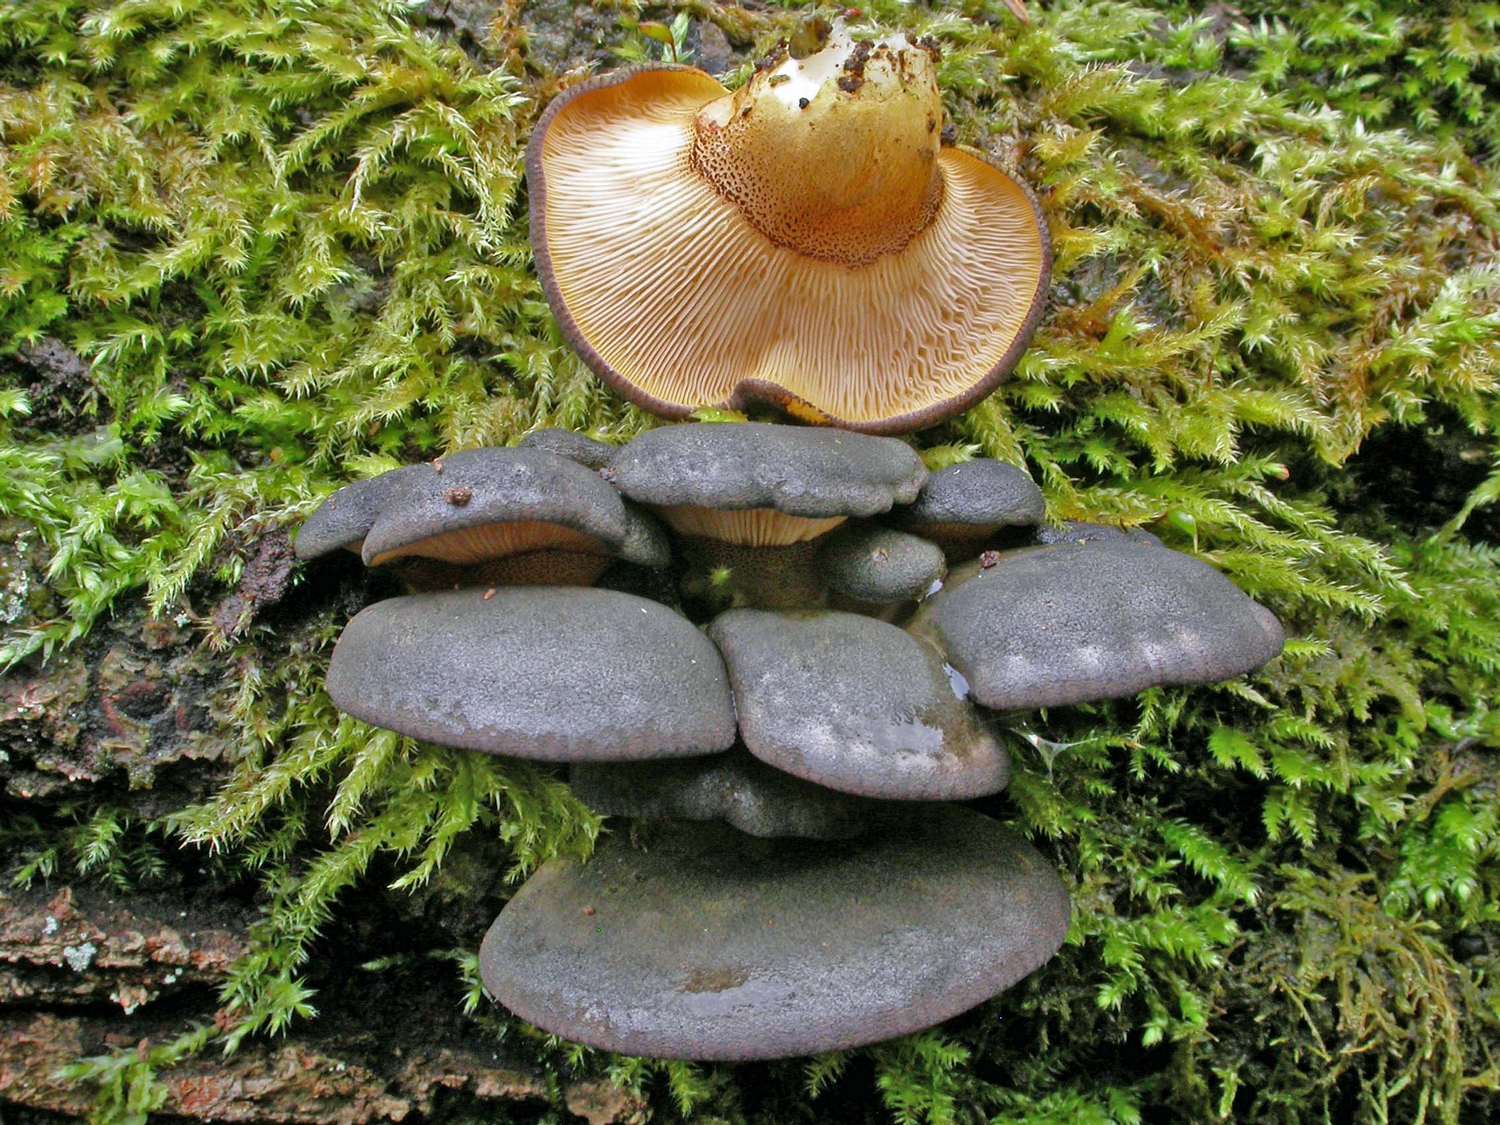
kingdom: Fungi
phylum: Basidiomycota
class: Agaricomycetes
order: Agaricales
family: Sarcomyxaceae
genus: Sarcomyxa
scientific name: Sarcomyxa serotina
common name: gummihat
